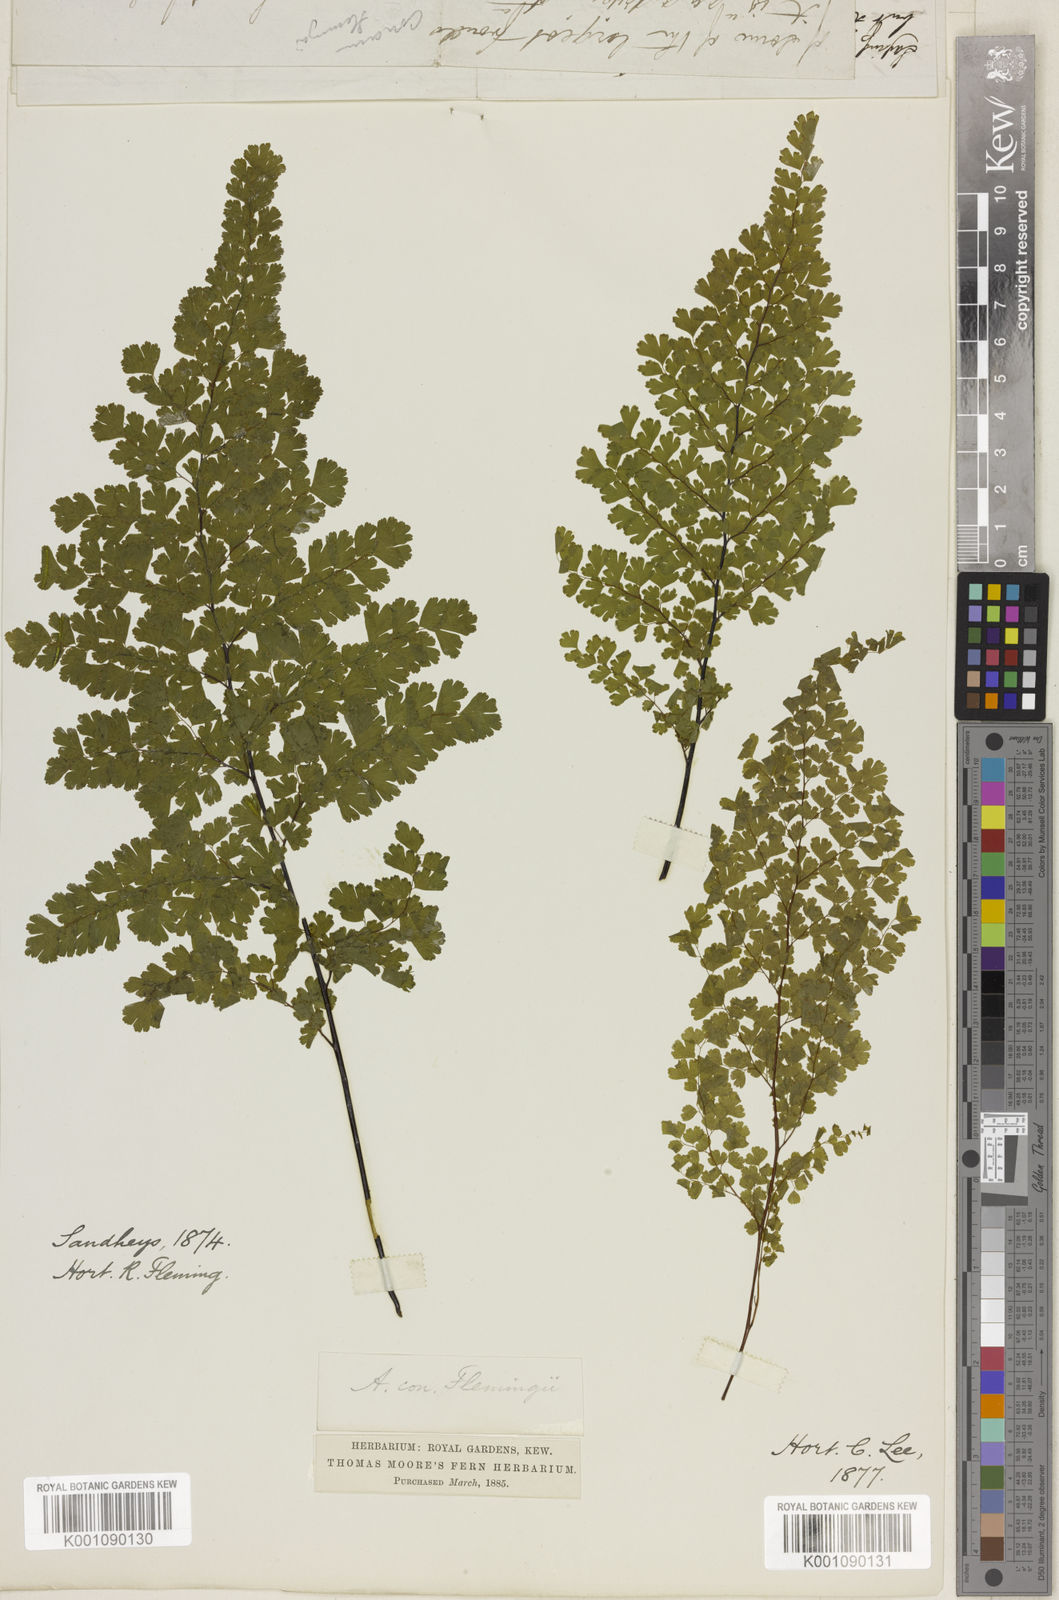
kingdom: Plantae
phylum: Tracheophyta
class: Polypodiopsida
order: Polypodiales
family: Pteridaceae
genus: Adiantum
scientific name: Adiantum concinnum
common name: Brittle maidenhair fern
